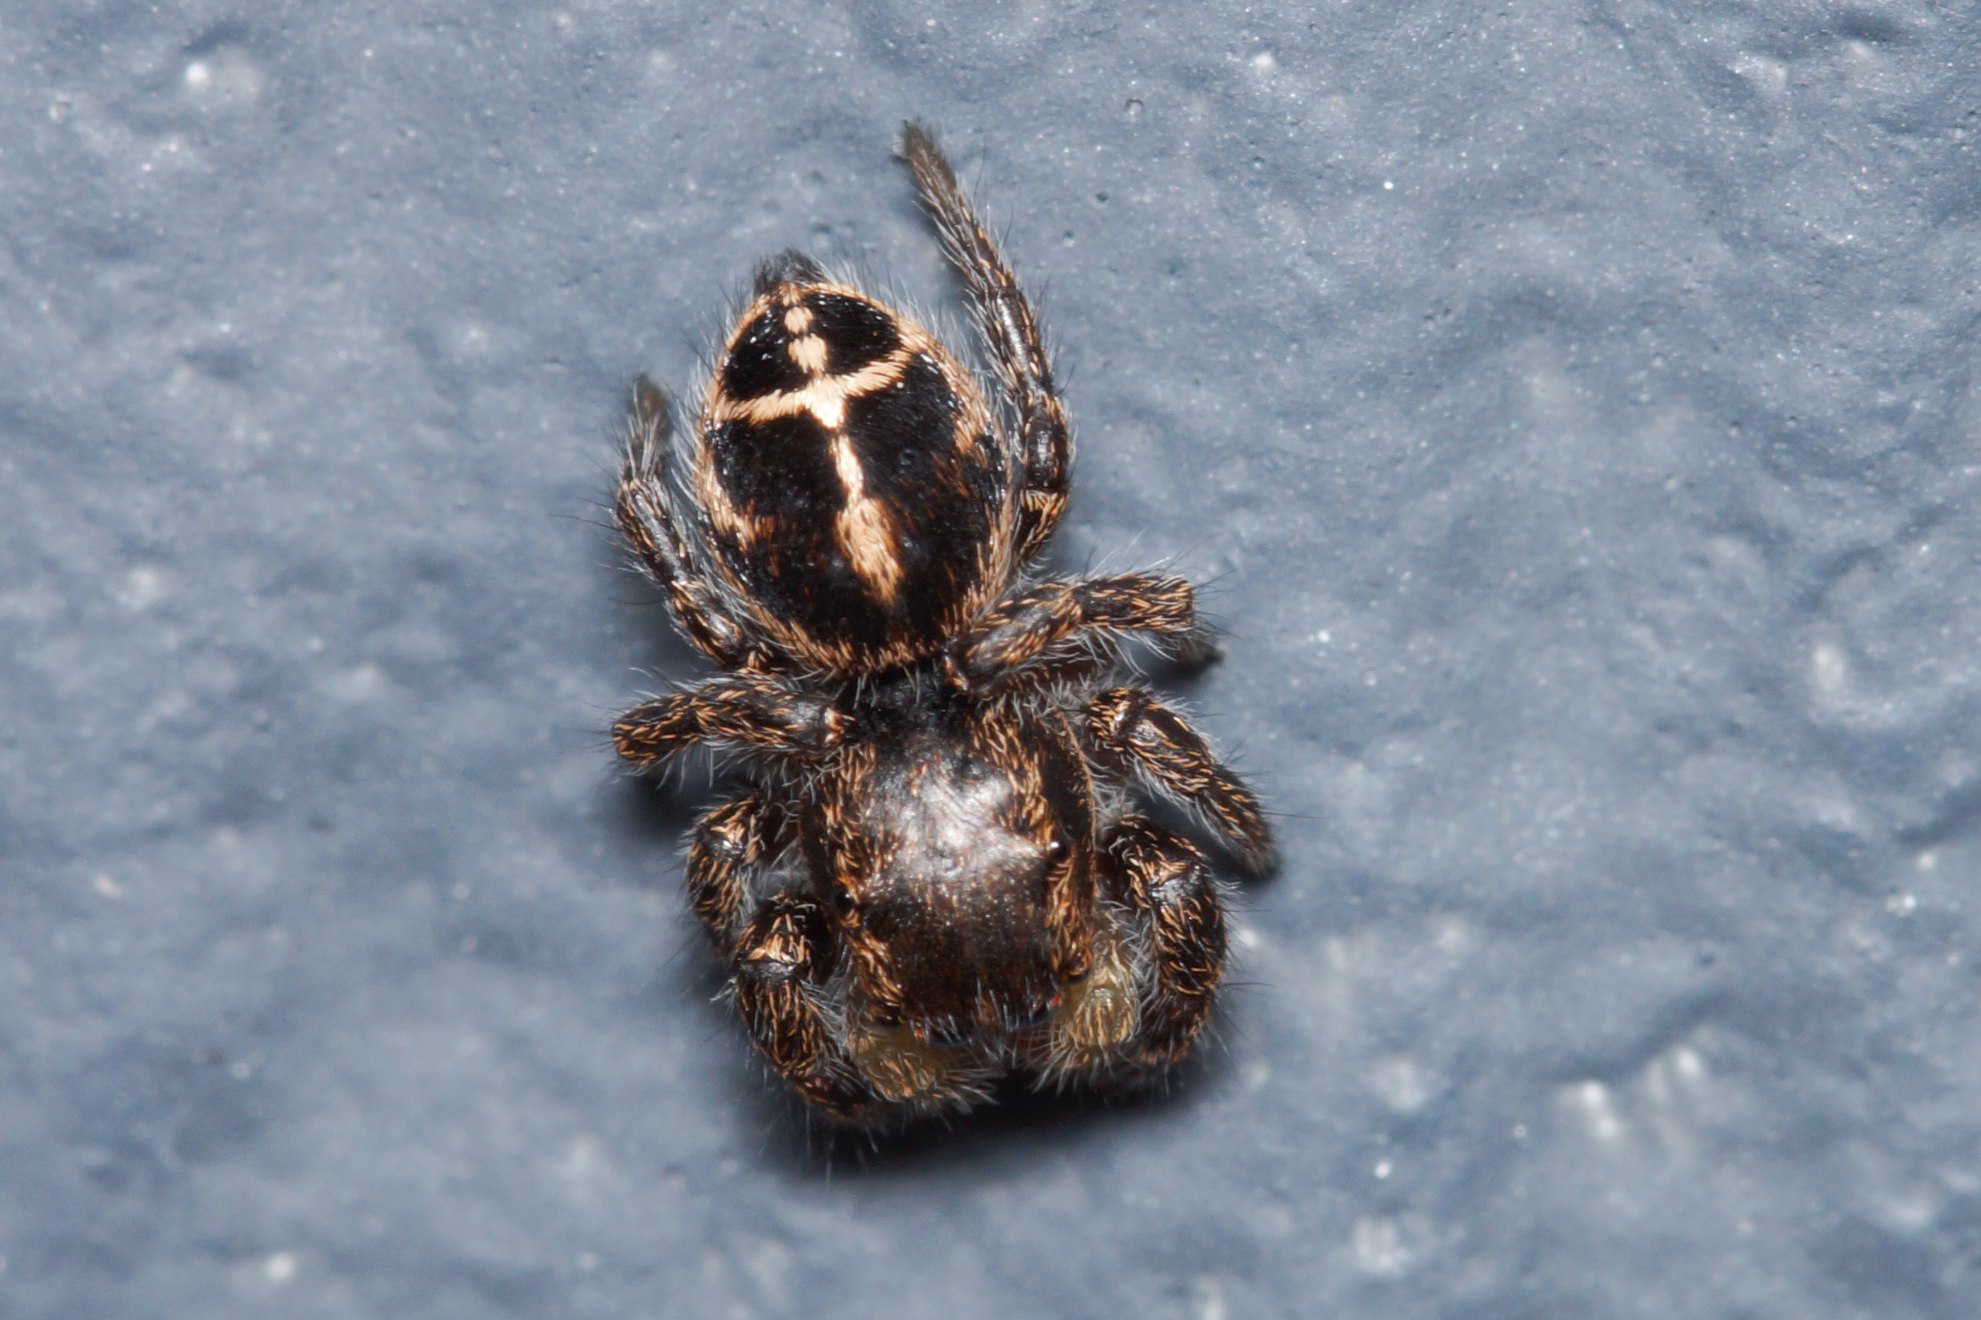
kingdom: Animalia
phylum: Arthropoda
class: Arachnida
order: Araneae
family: Salticidae
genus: Pellenes
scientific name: Pellenes tripunctatus
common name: Treplettet springedderkop
